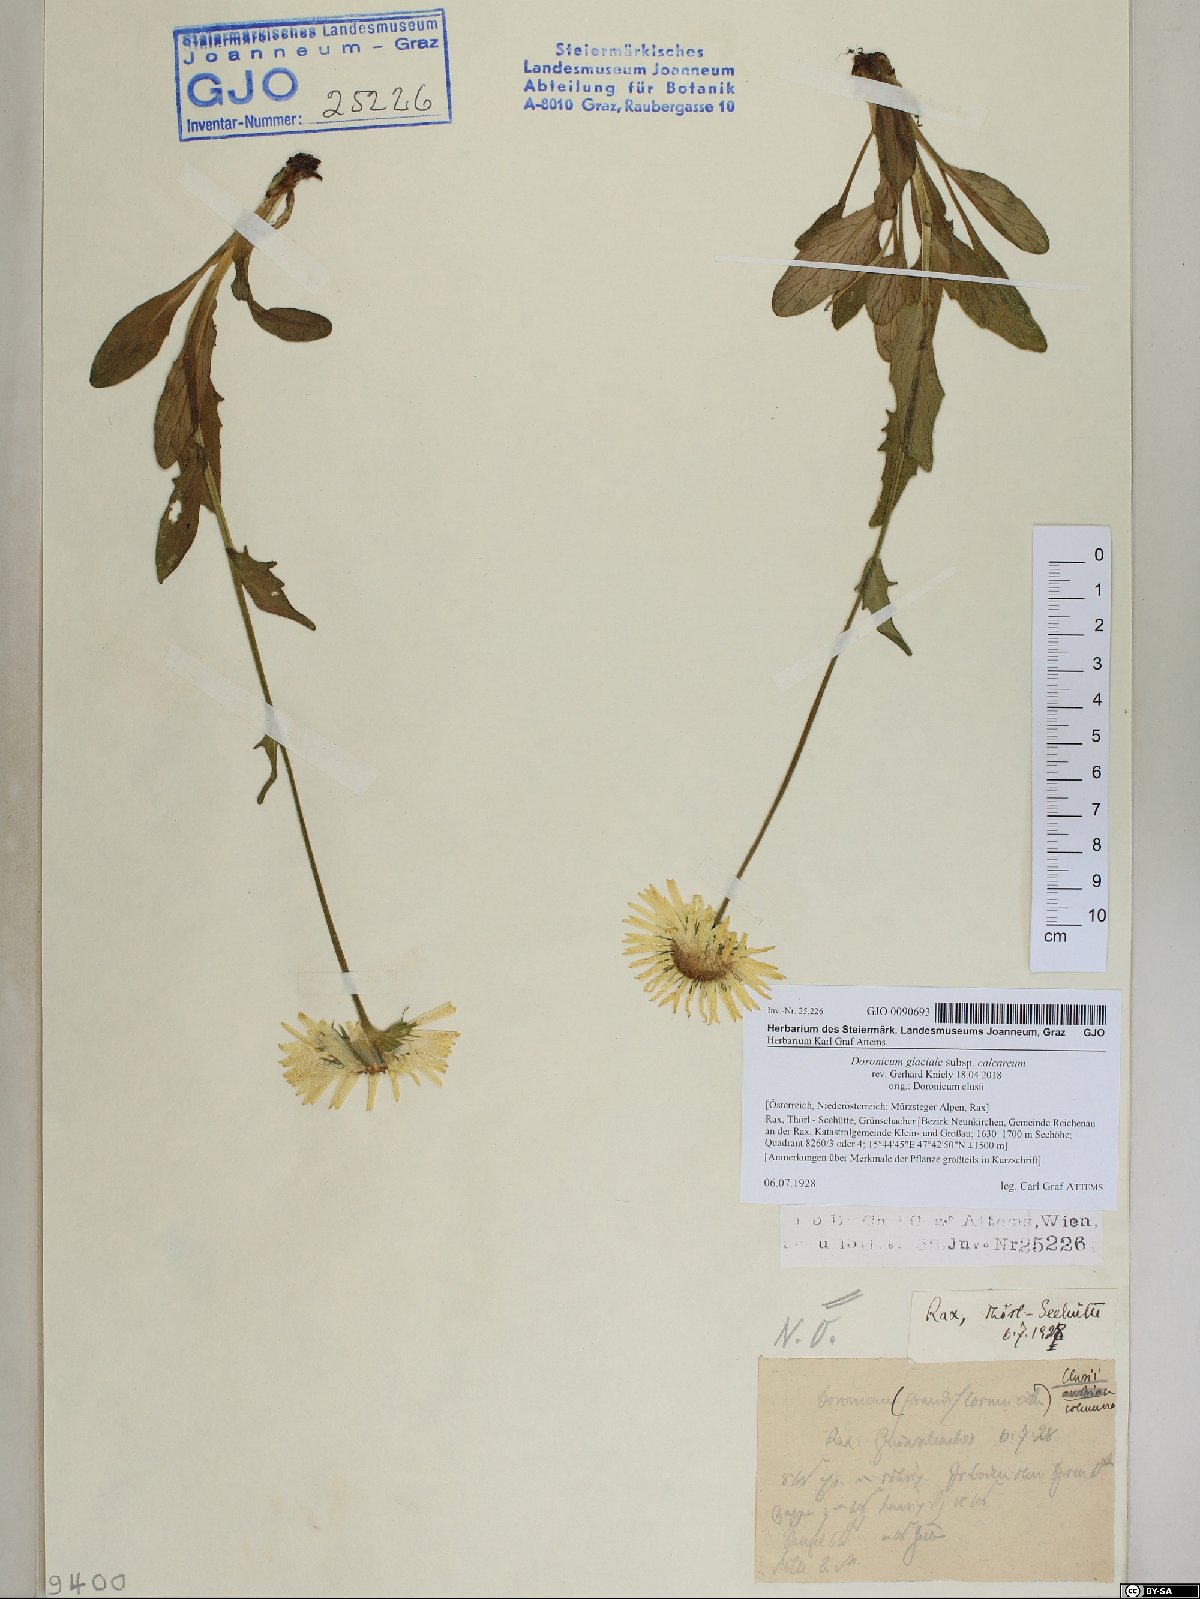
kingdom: Plantae
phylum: Tracheophyta
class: Magnoliopsida
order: Asterales
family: Asteraceae
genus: Doronicum
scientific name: Doronicum glaciale
